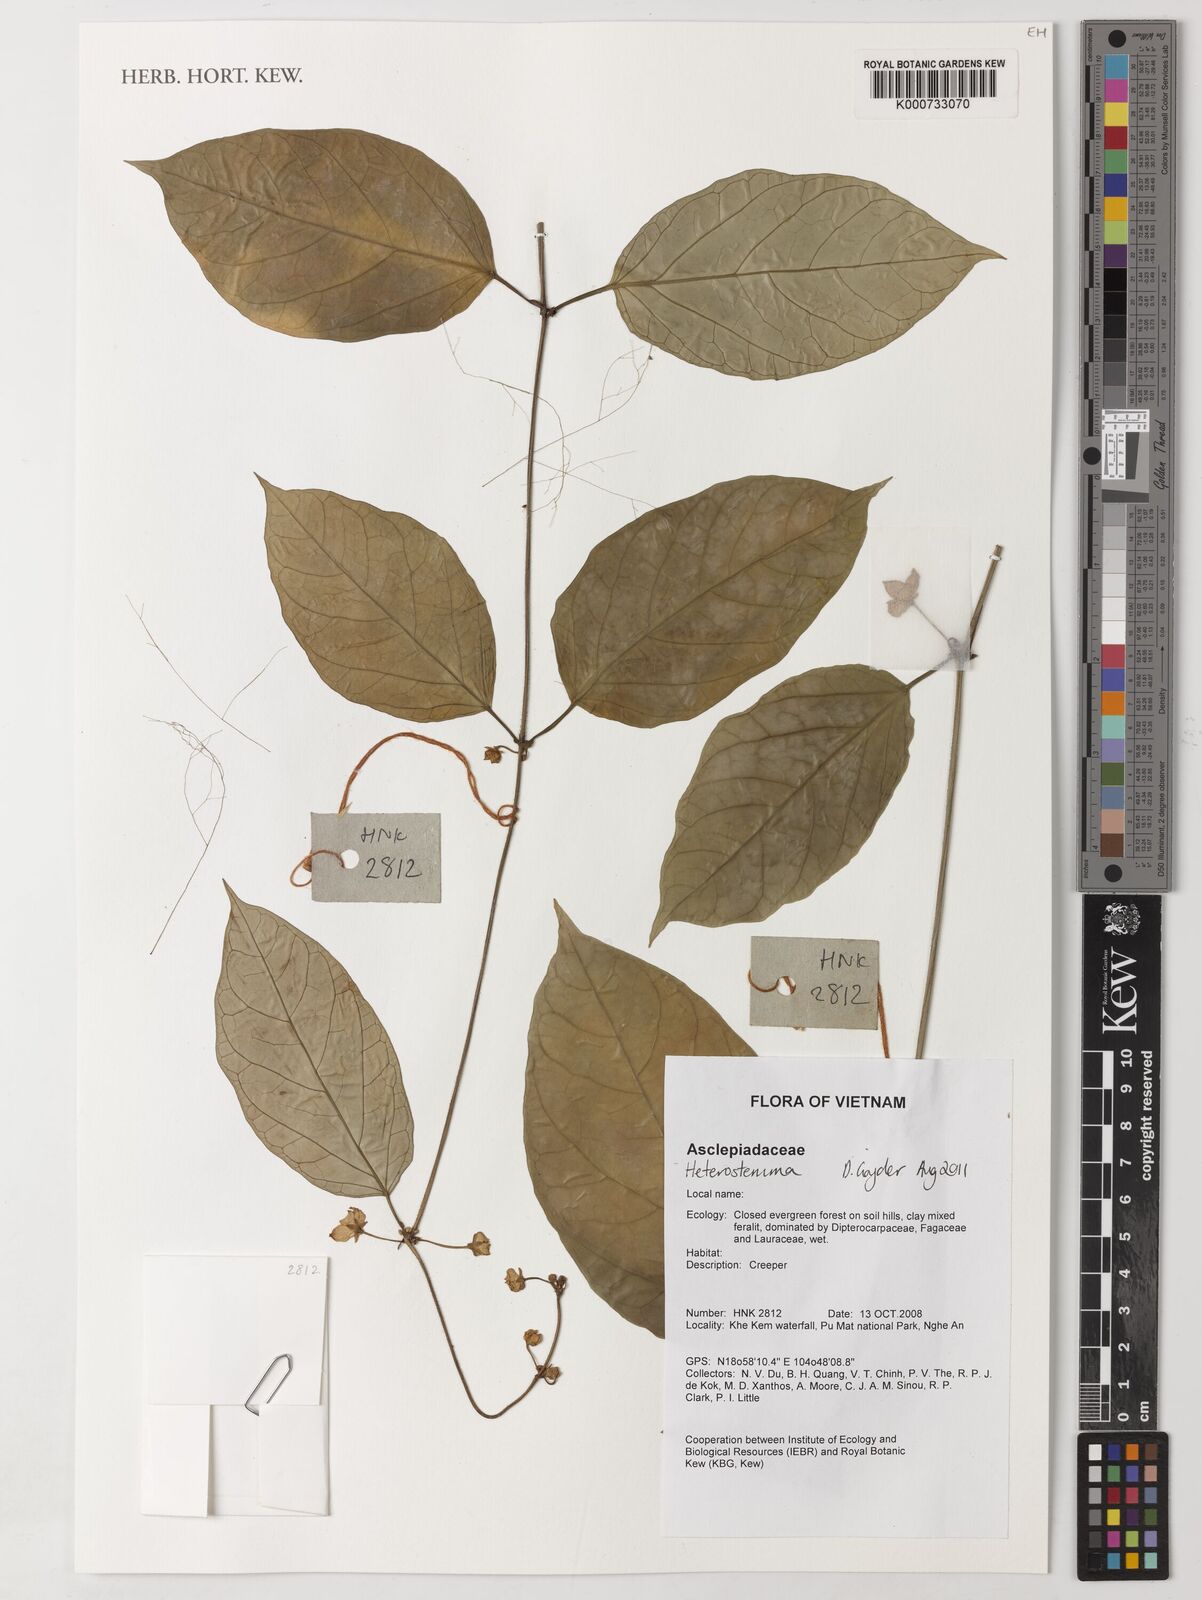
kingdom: Plantae
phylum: Tracheophyta
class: Magnoliopsida
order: Gentianales
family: Apocynaceae
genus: Heterostemma
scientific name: Heterostemma
